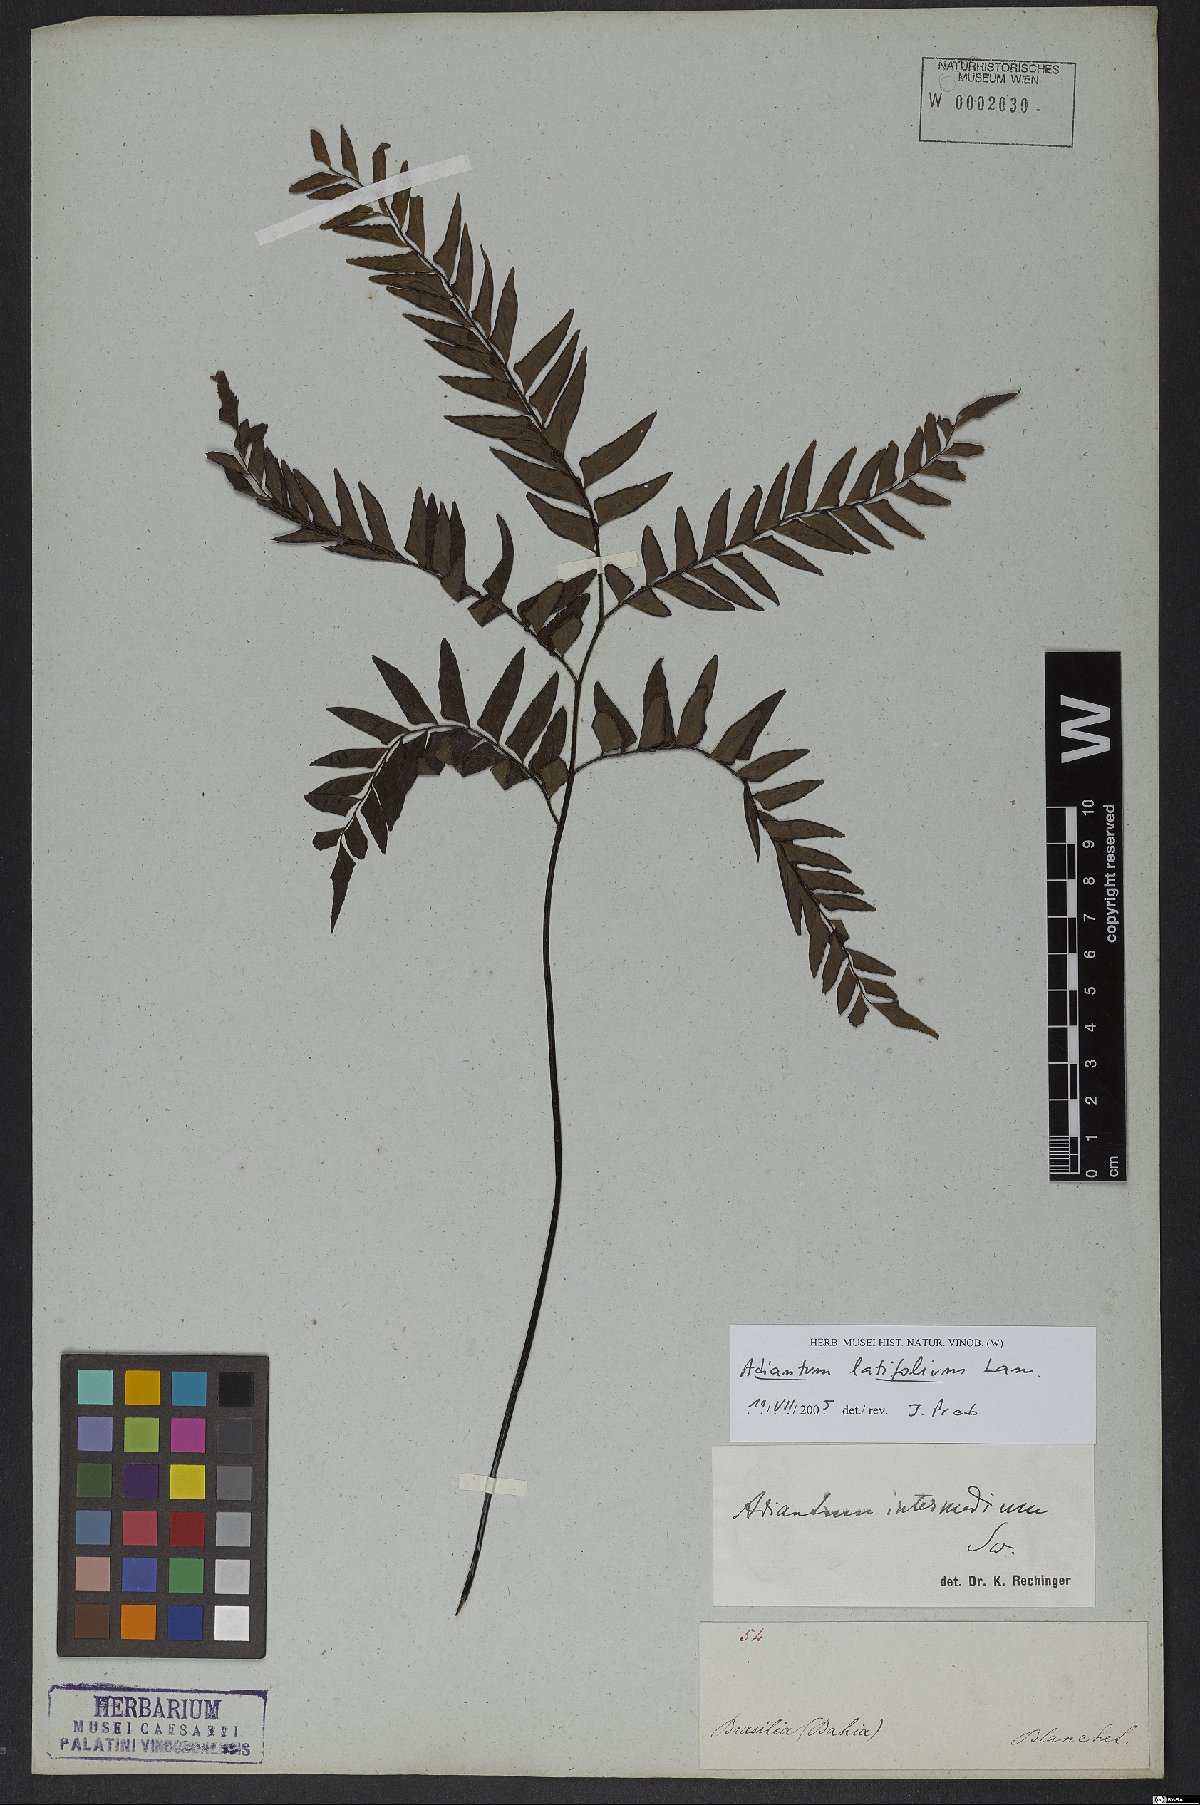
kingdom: Plantae
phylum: Tracheophyta
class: Polypodiopsida
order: Polypodiales
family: Pteridaceae
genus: Adiantum
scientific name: Adiantum latifolium
